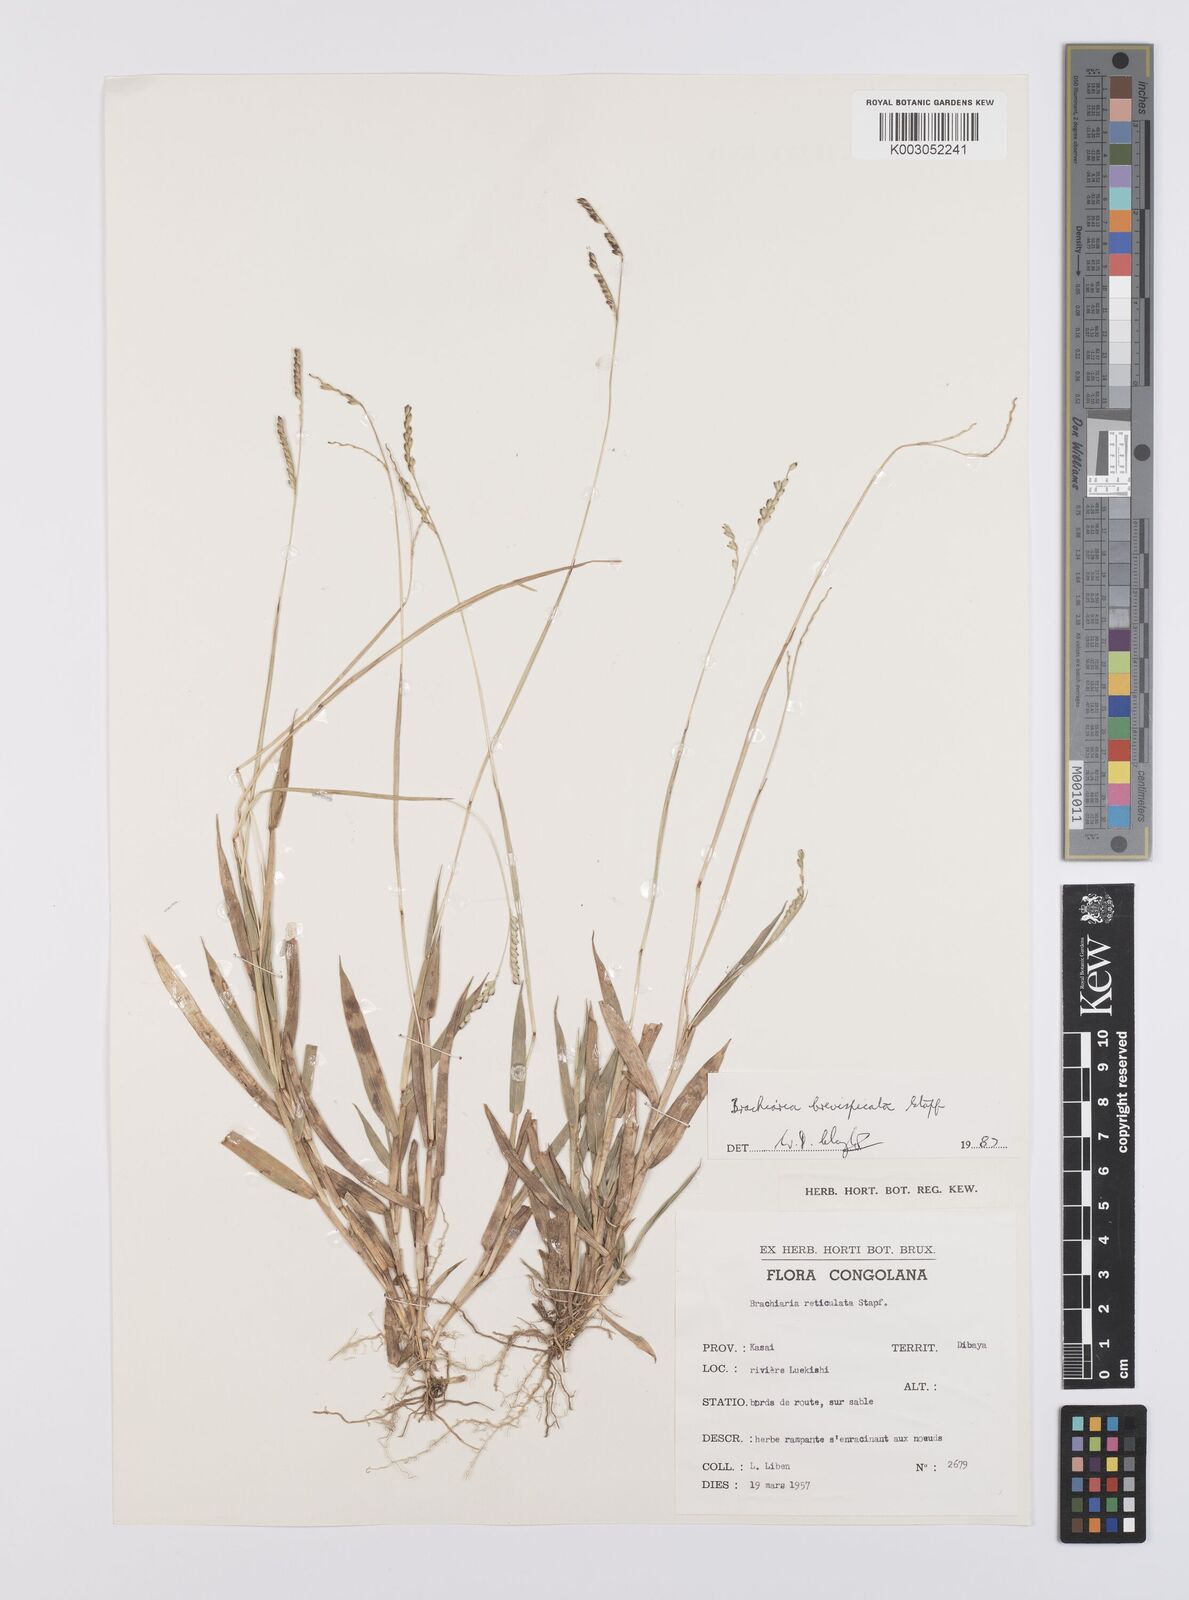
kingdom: Plantae
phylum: Tracheophyta
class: Liliopsida
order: Poales
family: Poaceae
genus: Urochloa
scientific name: Urochloa reticulata
